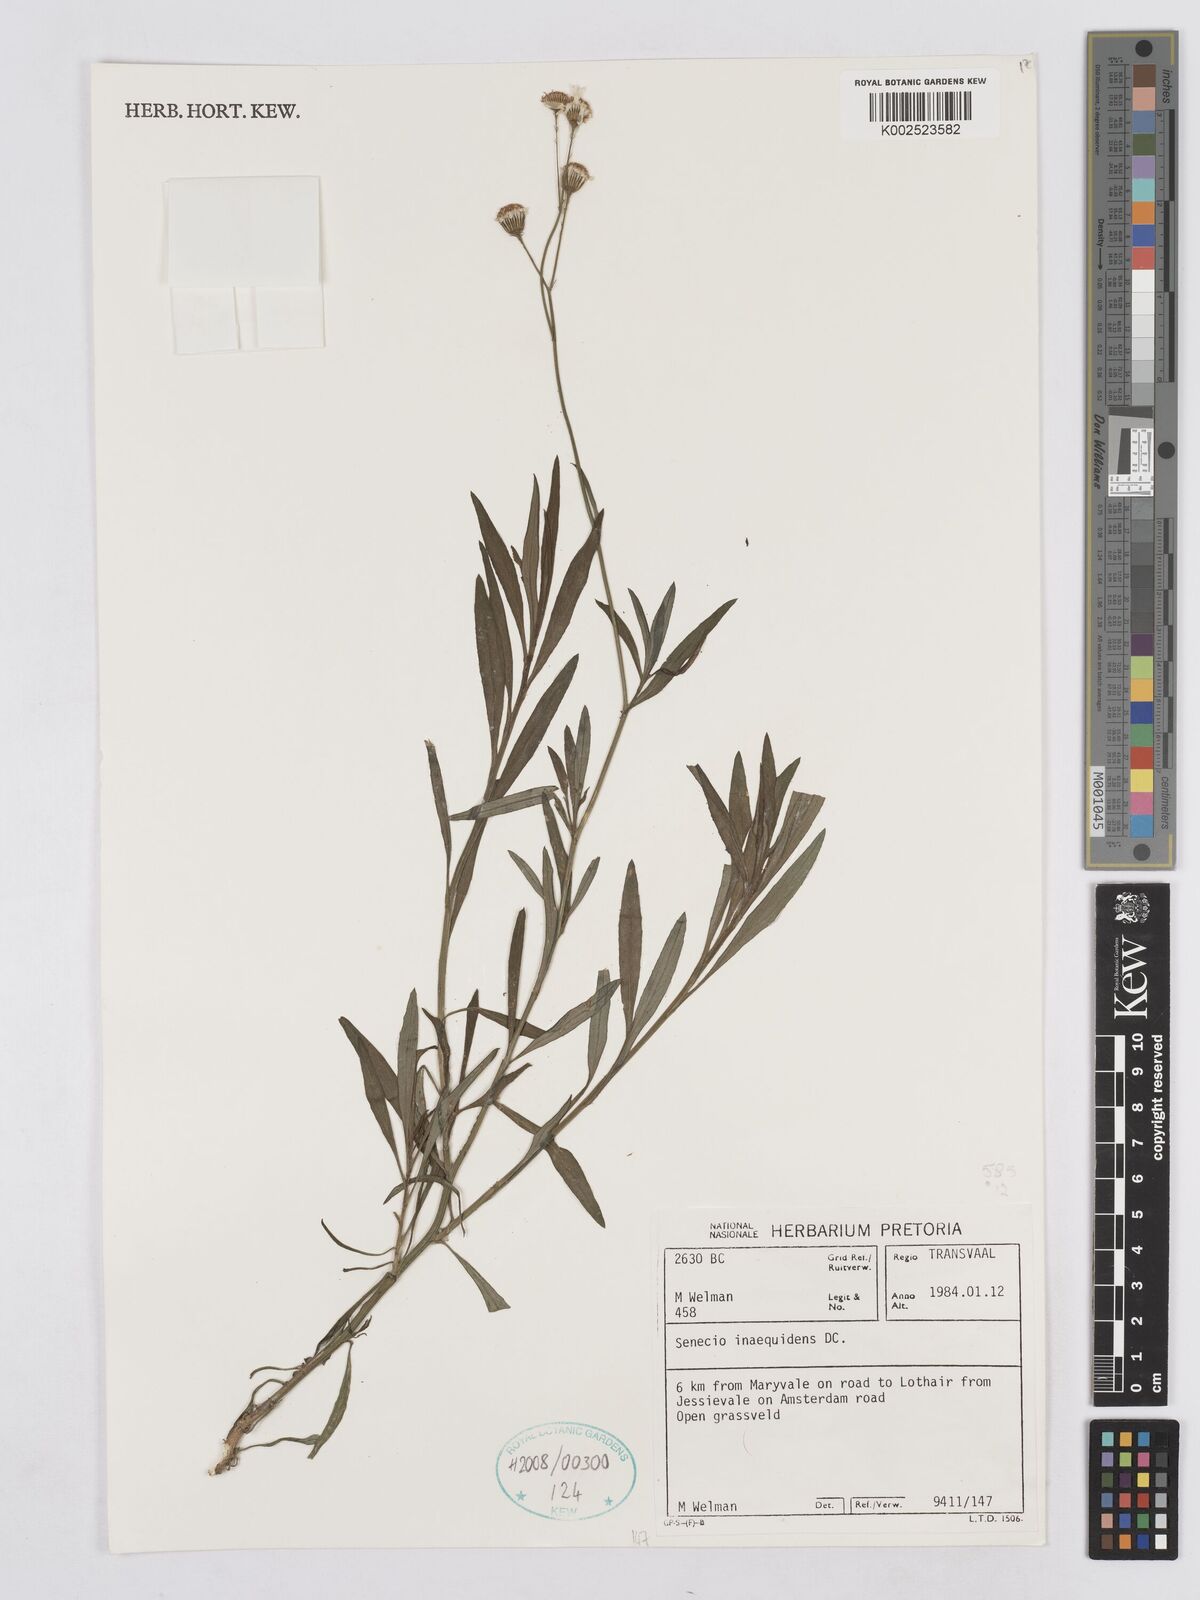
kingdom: Plantae
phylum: Tracheophyta
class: Magnoliopsida
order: Asterales
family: Asteraceae
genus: Senecio
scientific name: Senecio inaequidens
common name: Narrow-leaved ragwort
